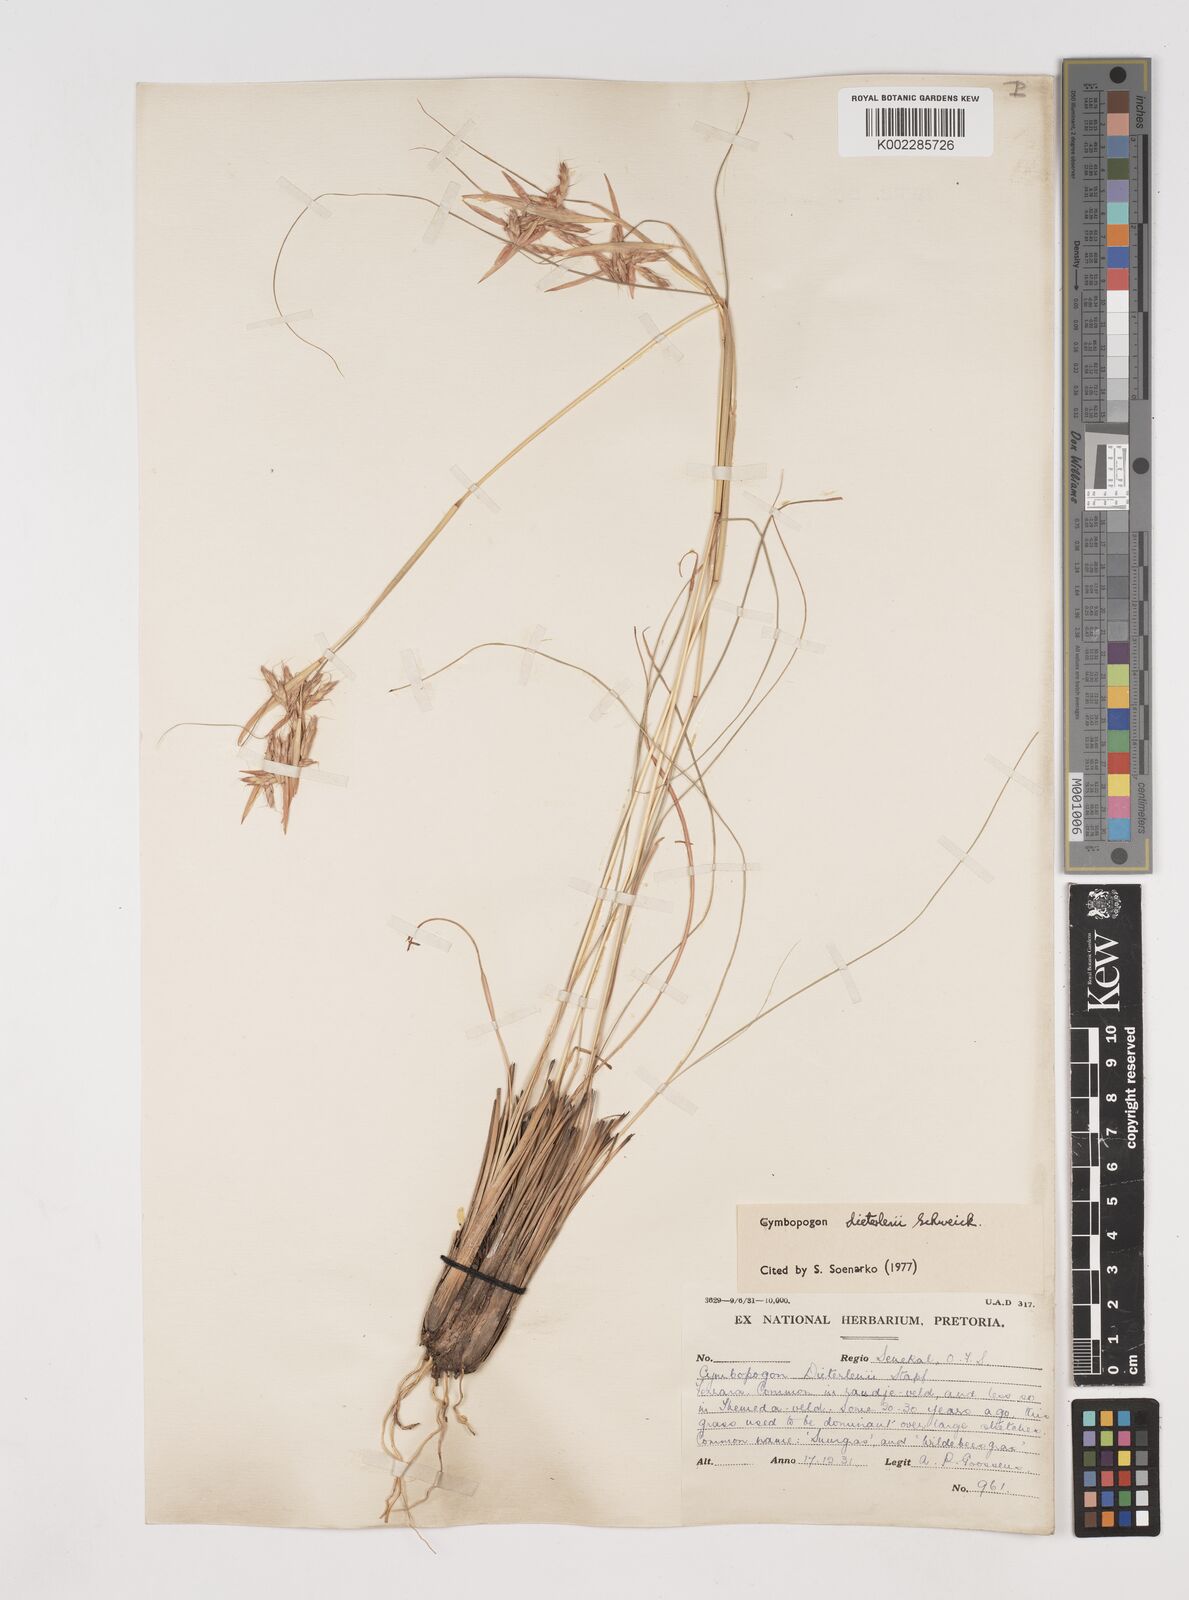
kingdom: Plantae
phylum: Tracheophyta
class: Liliopsida
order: Poales
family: Poaceae
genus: Cymbopogon
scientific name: Cymbopogon dieterlenii
